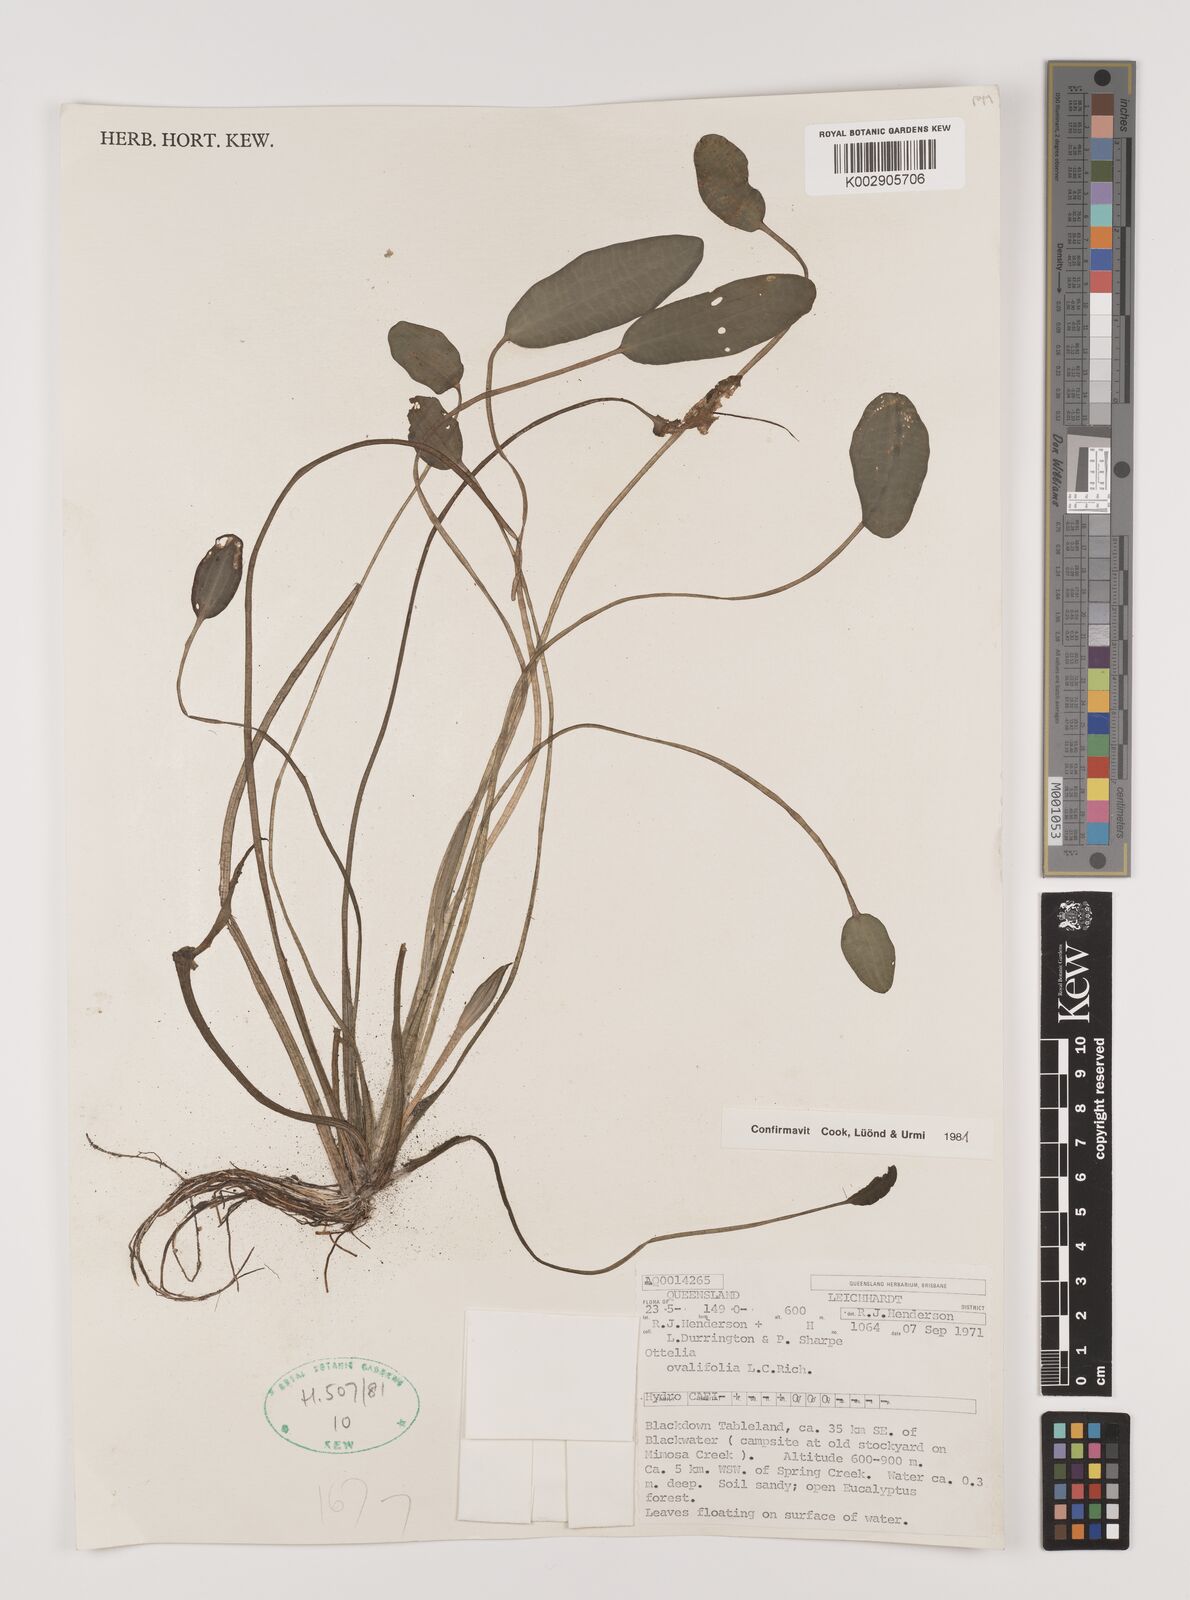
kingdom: Plantae
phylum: Tracheophyta
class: Liliopsida
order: Alismatales
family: Hydrocharitaceae
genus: Ottelia
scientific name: Ottelia ovalifolia
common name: Swamp-lily
